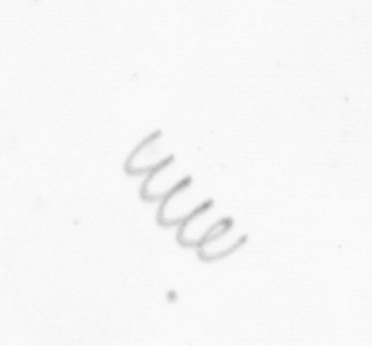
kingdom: Chromista
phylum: Ochrophyta
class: Bacillariophyceae
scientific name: Bacillariophyceae
